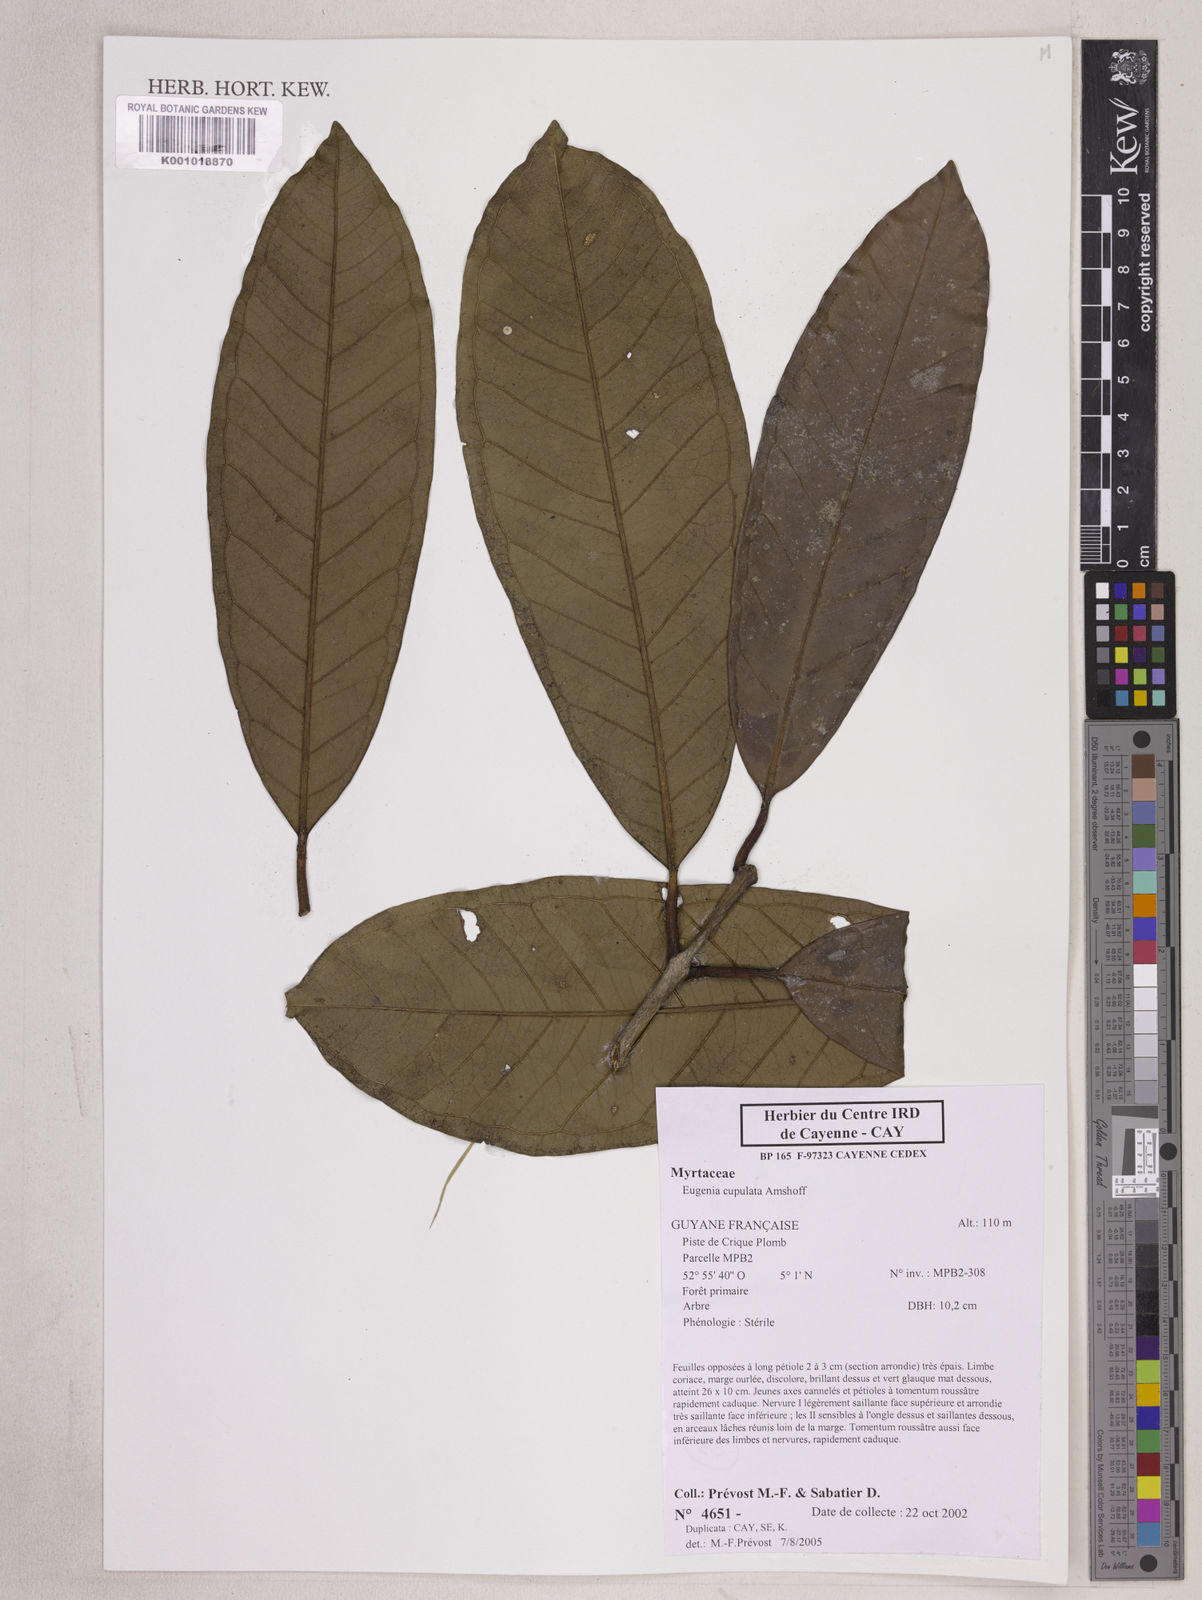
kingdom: Plantae
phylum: Tracheophyta
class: Magnoliopsida
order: Myrtales
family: Myrtaceae
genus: Eugenia
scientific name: Eugenia glomeruliflora
